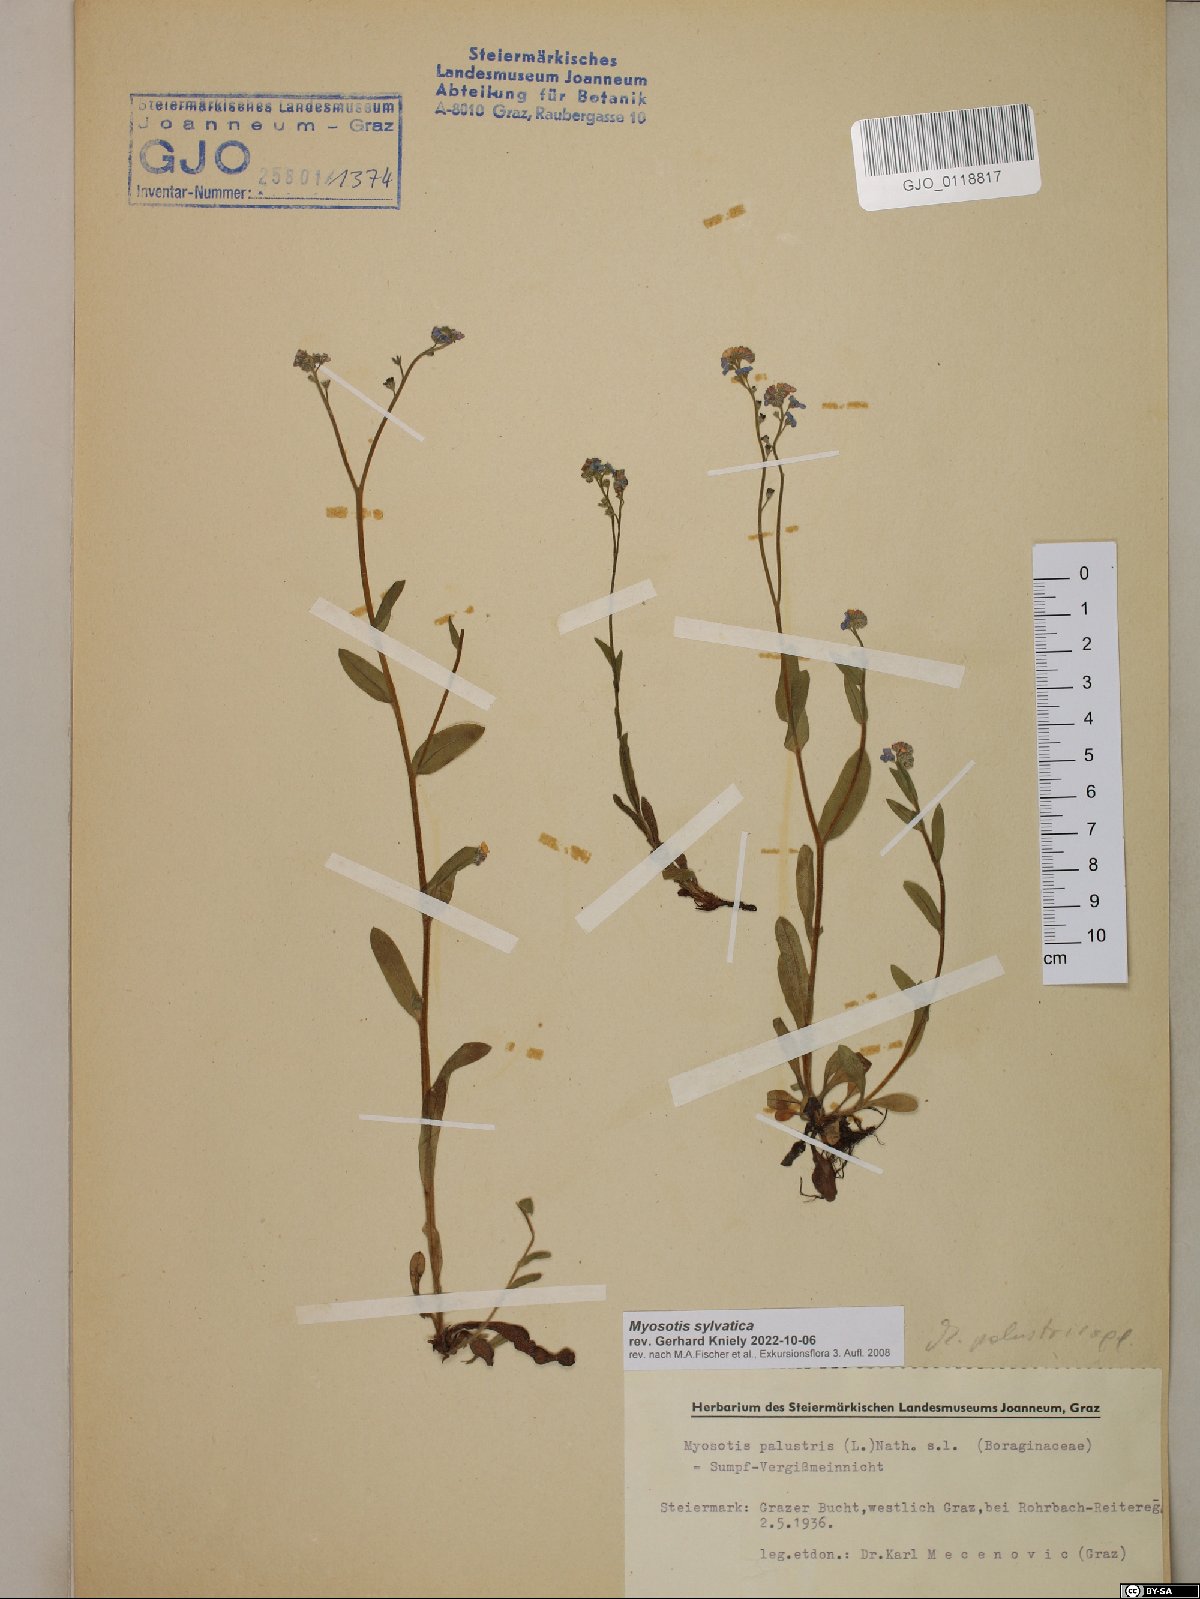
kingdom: Plantae
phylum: Tracheophyta
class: Magnoliopsida
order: Boraginales
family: Boraginaceae
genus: Myosotis
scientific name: Myosotis sylvatica
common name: Wood forget-me-not
